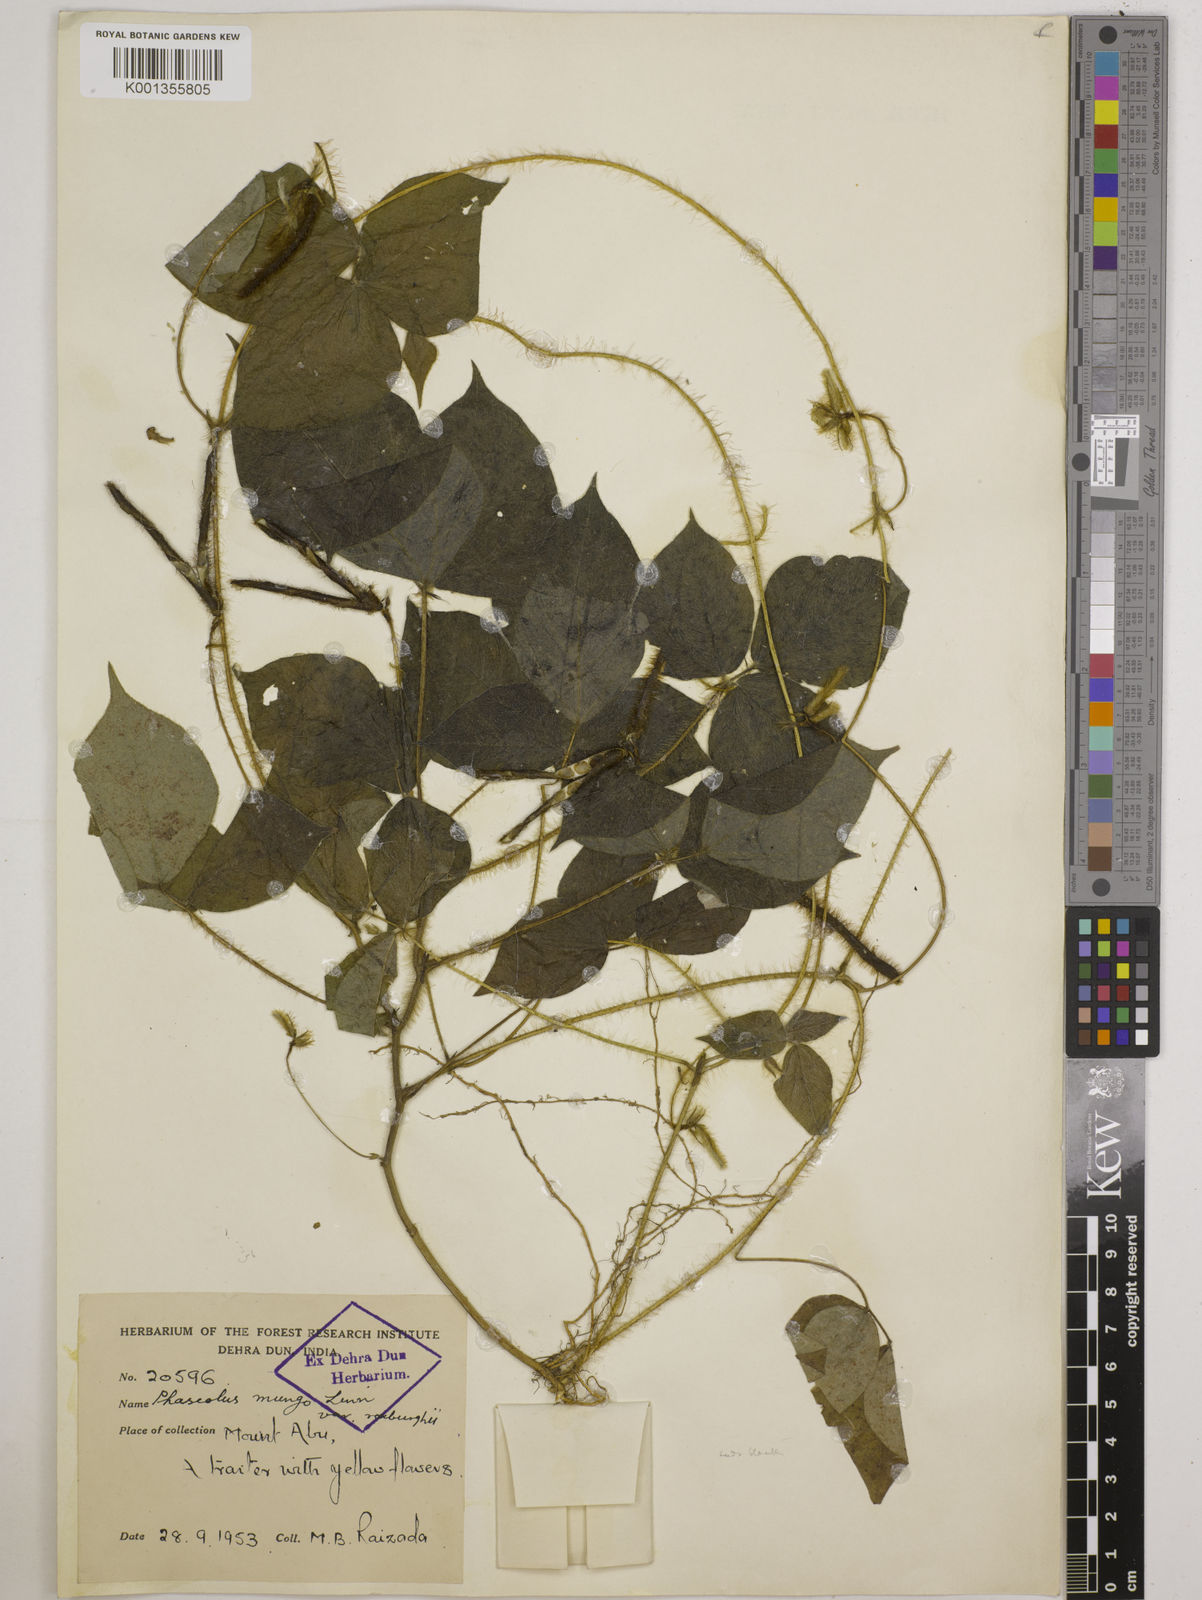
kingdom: Plantae
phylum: Tracheophyta
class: Magnoliopsida
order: Fabales
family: Fabaceae
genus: Vigna
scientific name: Vigna mungo
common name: Black gram
